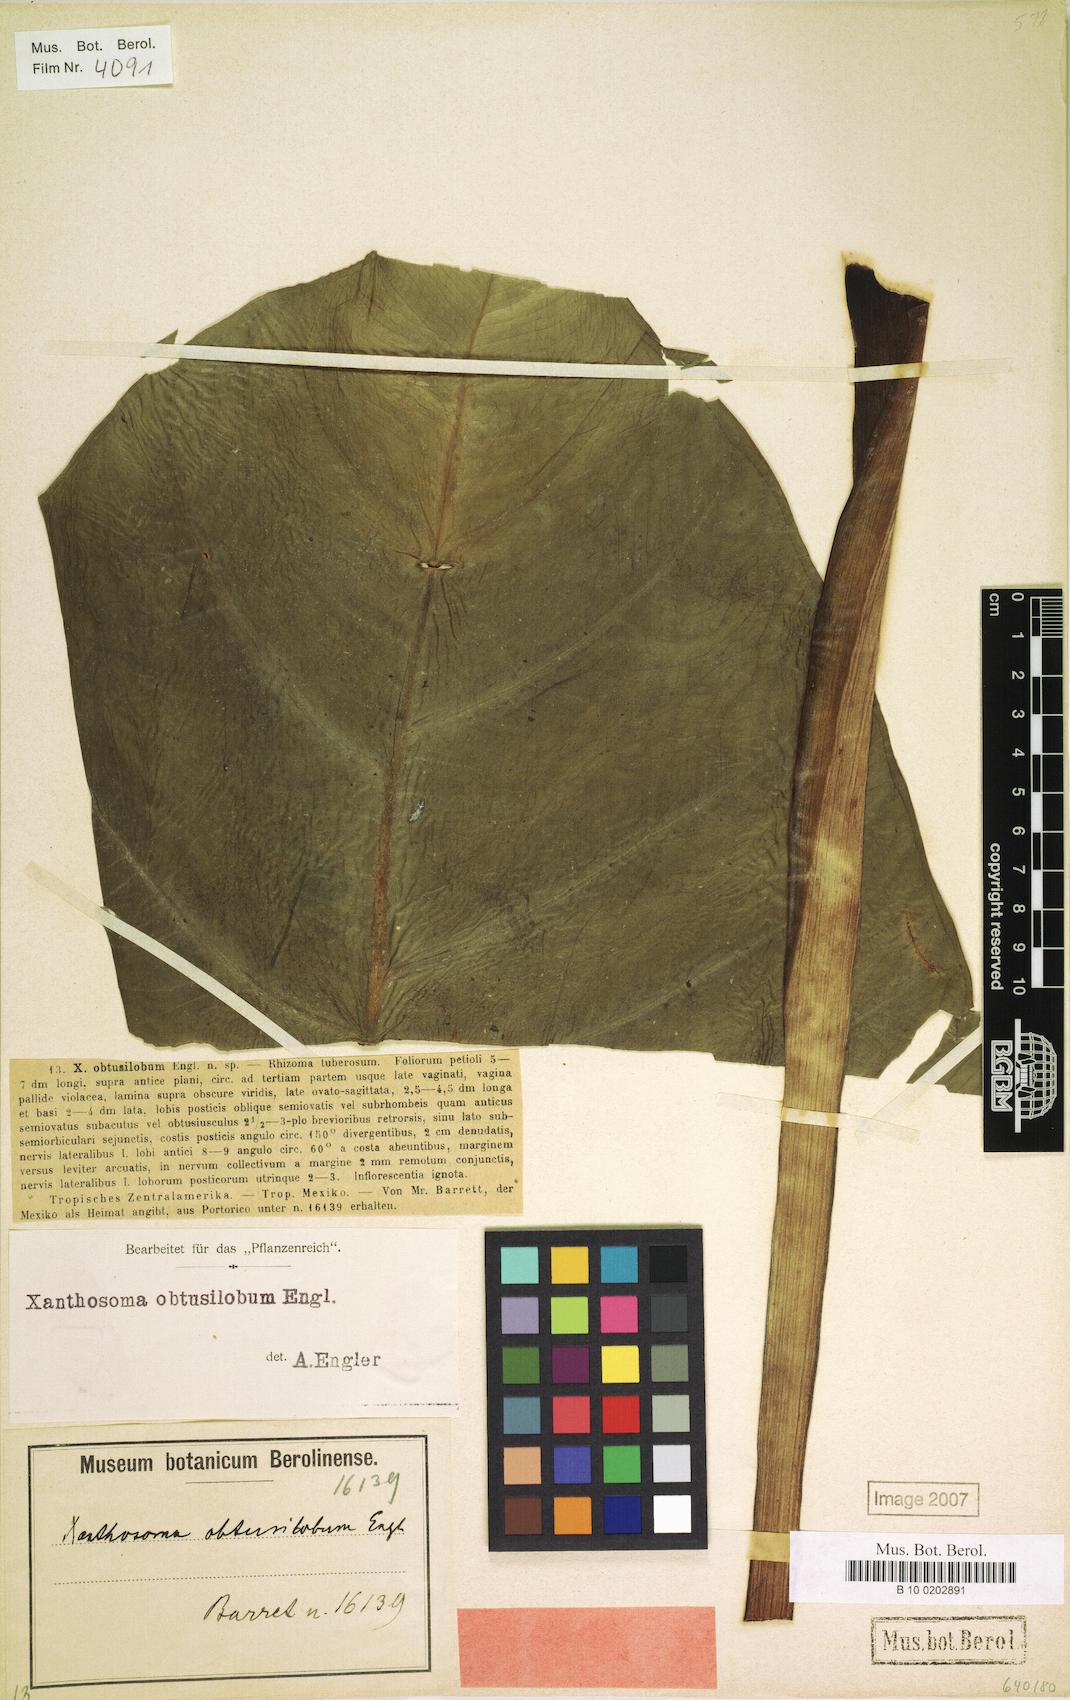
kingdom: Plantae
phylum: Tracheophyta
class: Liliopsida
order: Alismatales
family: Araceae
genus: Xanthosoma
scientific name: Xanthosoma sagittifolium
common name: Arrowleaf elephant's ear
